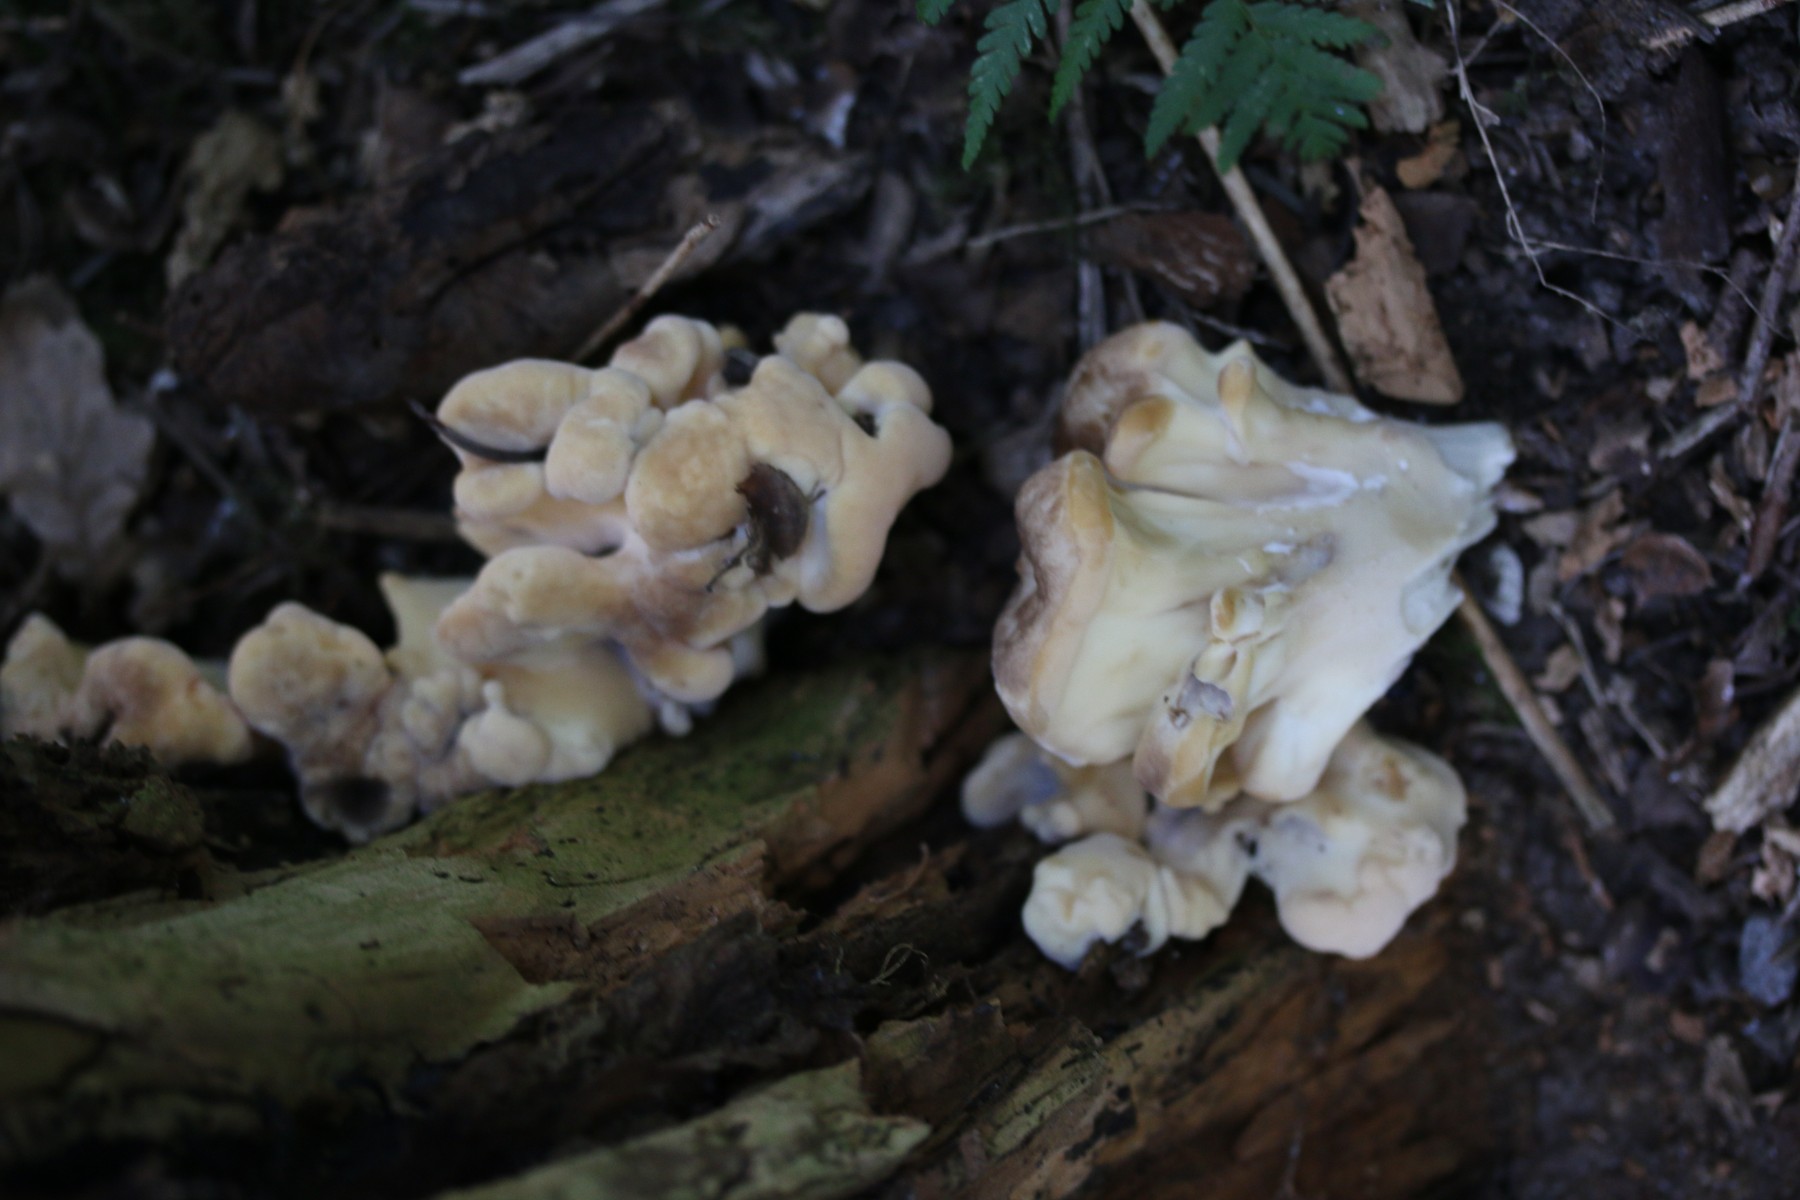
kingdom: Fungi
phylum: Basidiomycota
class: Agaricomycetes
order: Polyporales
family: Meripilaceae
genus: Meripilus
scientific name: Meripilus giganteus
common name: kæmpeporesvamp
